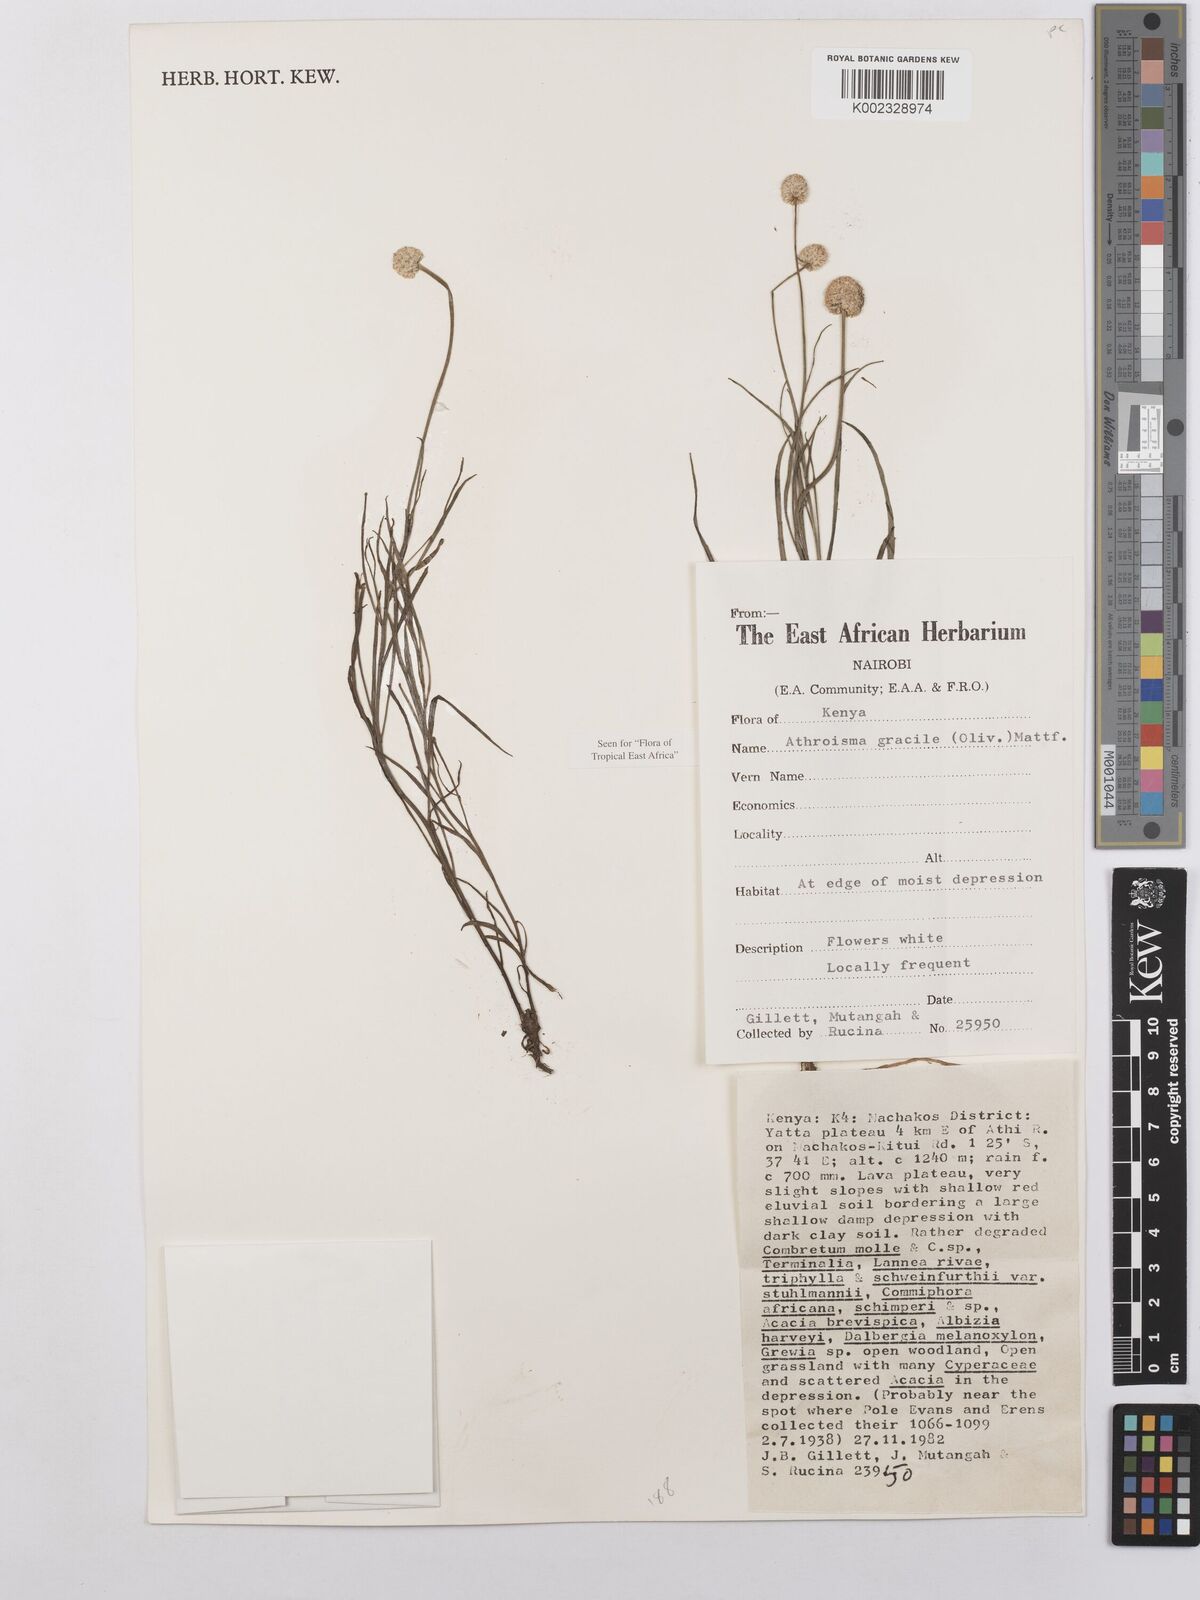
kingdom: Plantae
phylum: Tracheophyta
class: Magnoliopsida
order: Asterales
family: Asteraceae
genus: Athroisma
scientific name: Athroisma gracile
